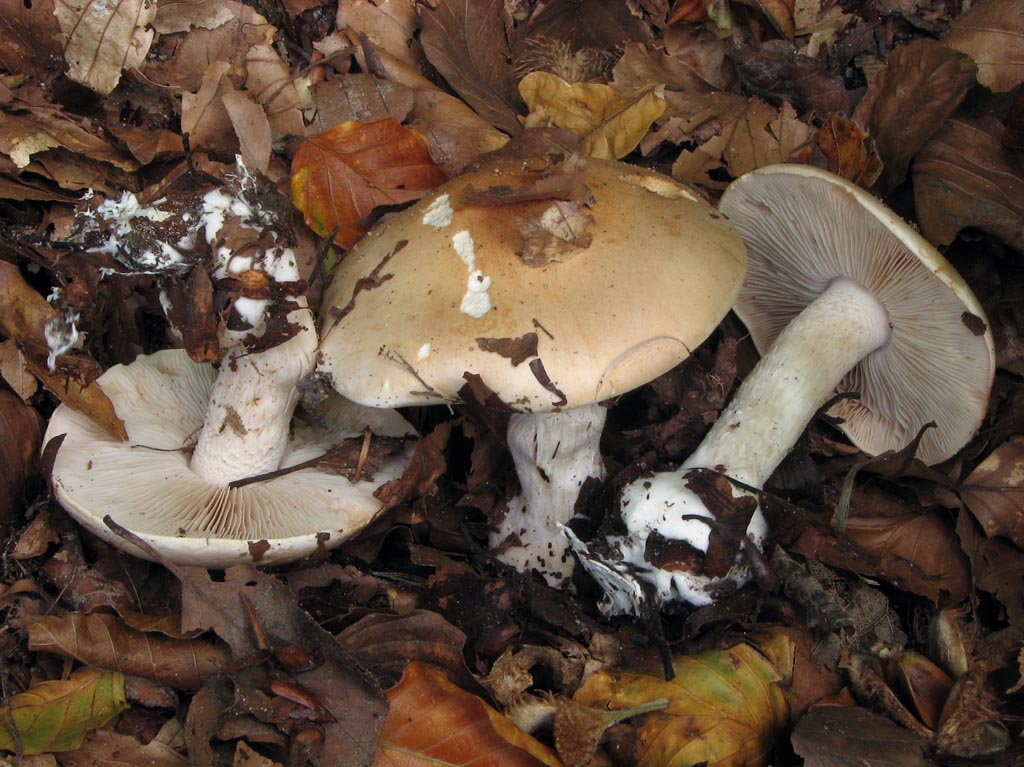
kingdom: Fungi
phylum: Basidiomycota
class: Agaricomycetes
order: Agaricales
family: Hymenogastraceae
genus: Hebeloma
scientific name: Hebeloma sinapizans
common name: ræddike-tåreblad
